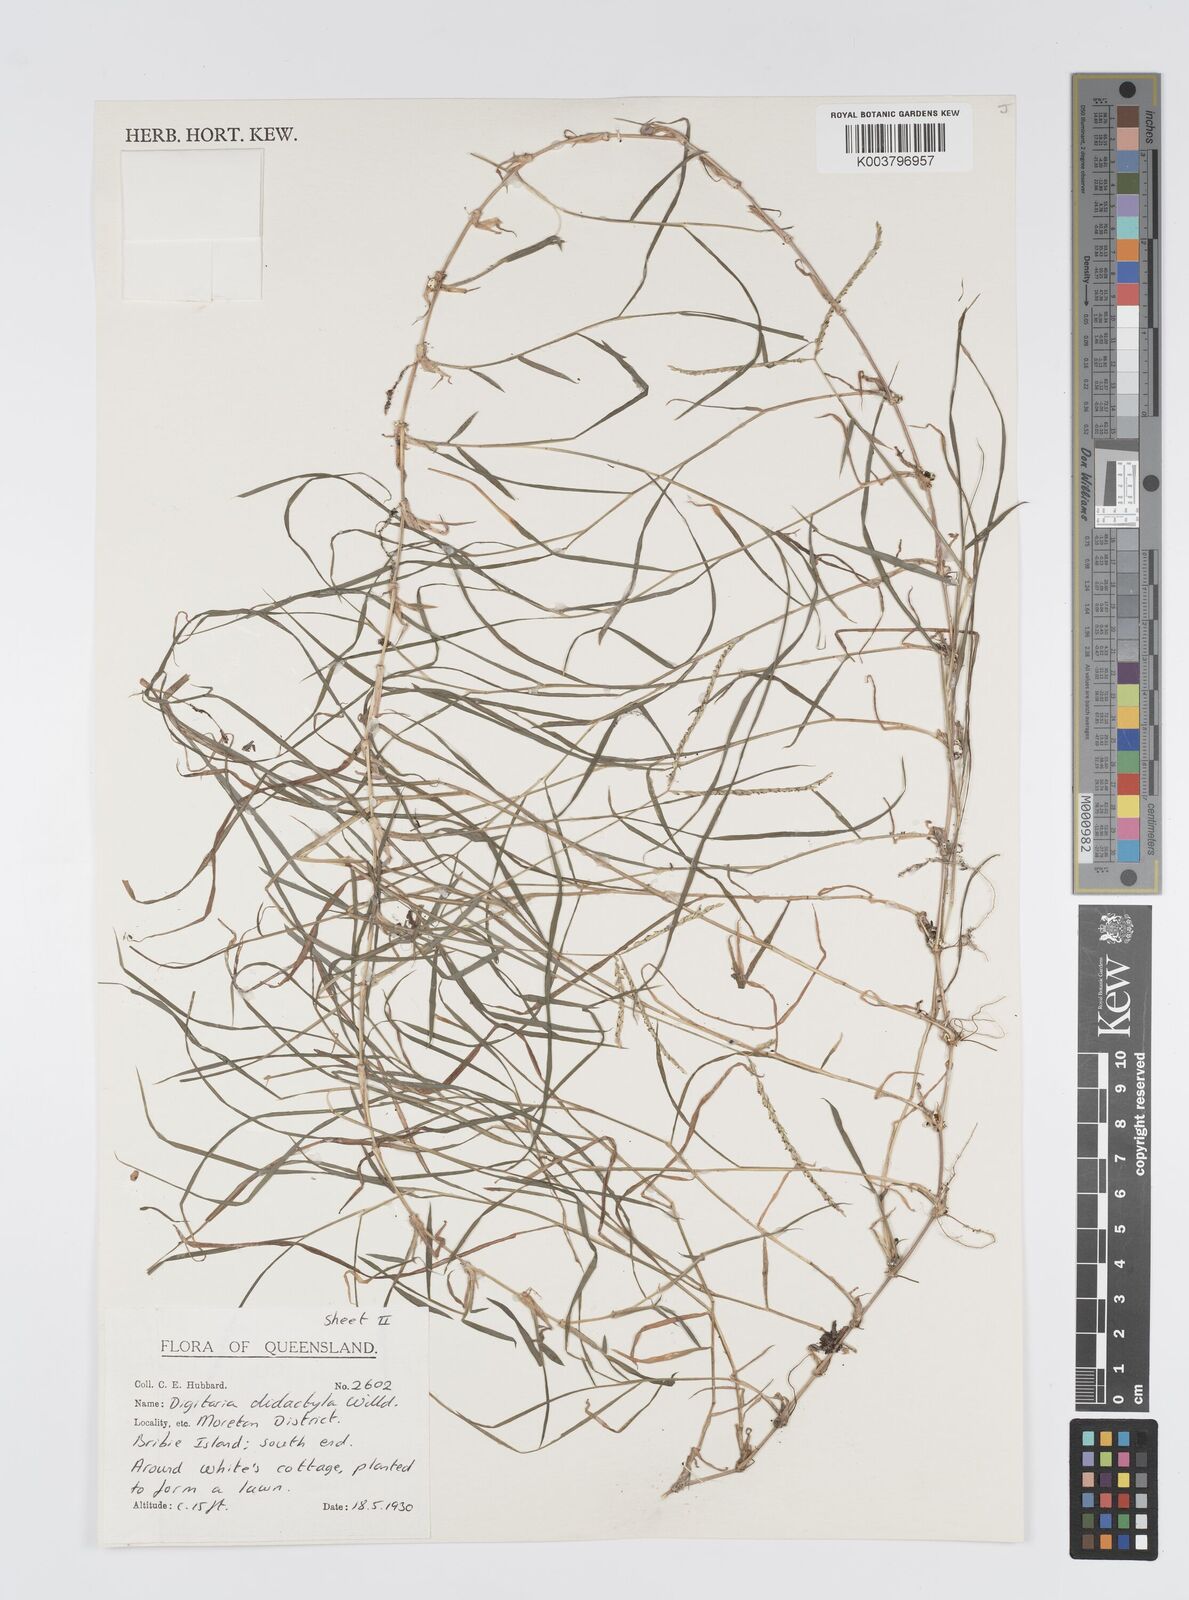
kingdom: Plantae
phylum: Tracheophyta
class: Liliopsida
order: Poales
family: Poaceae
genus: Digitaria
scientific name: Digitaria didactyla
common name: Blue couch
